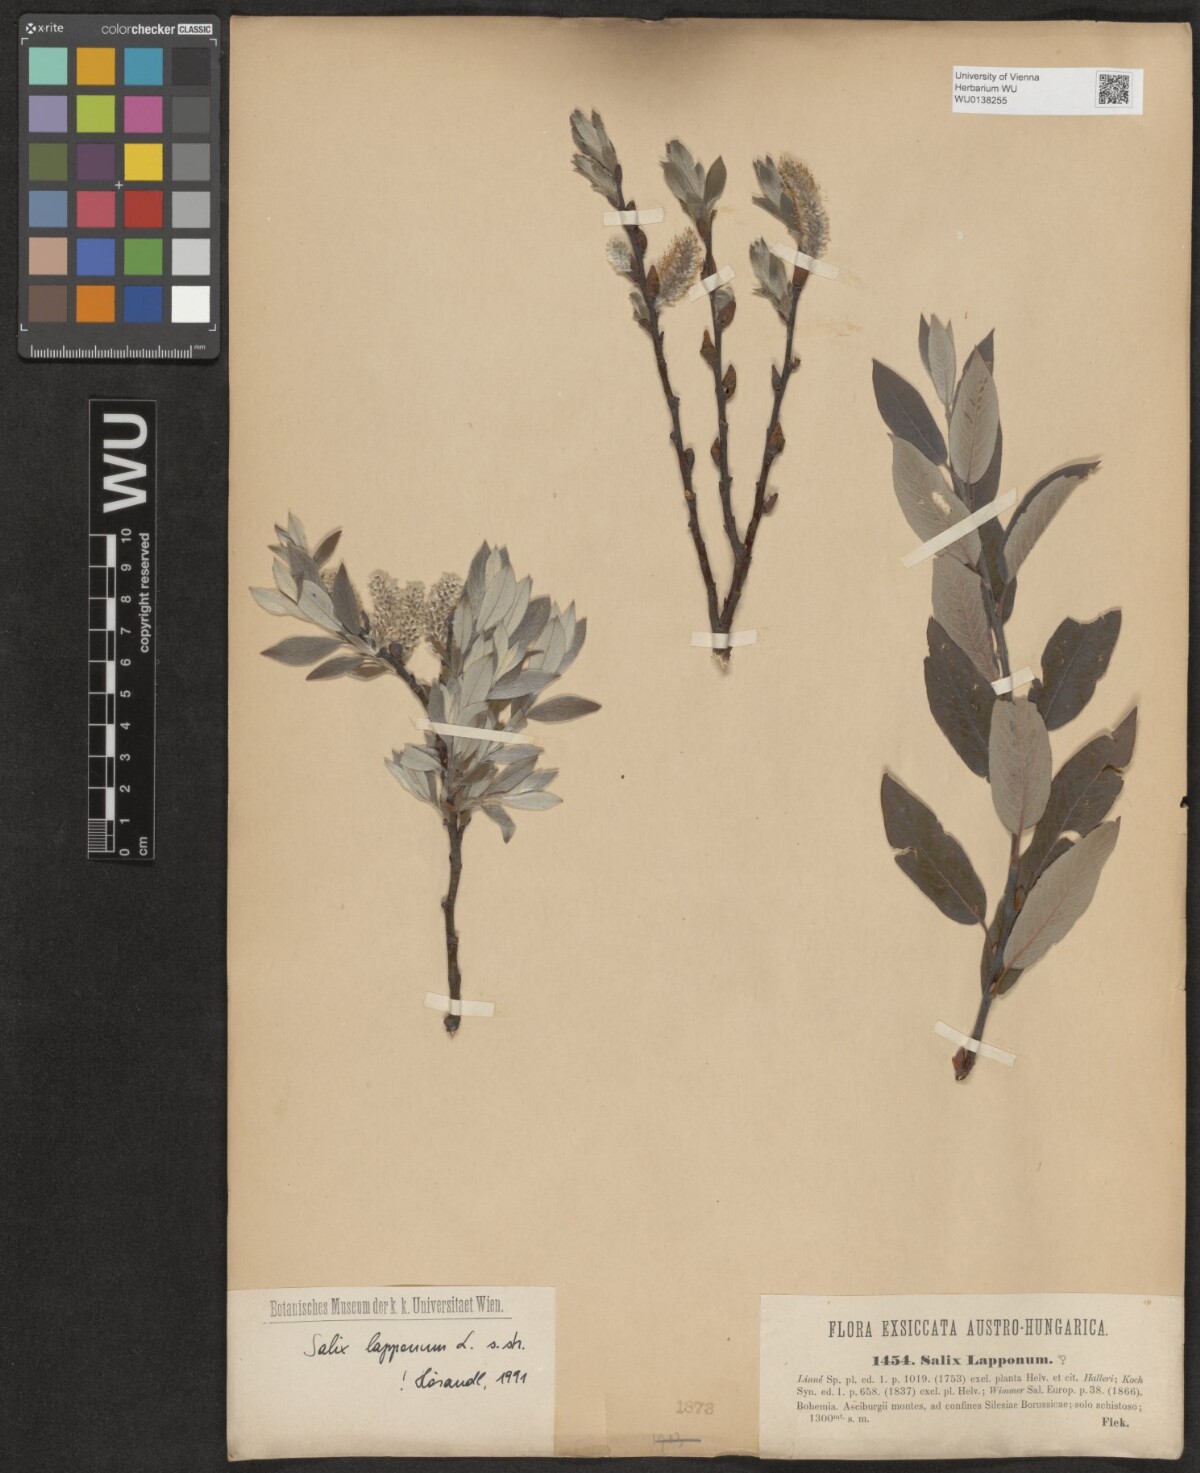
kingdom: Plantae
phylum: Tracheophyta
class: Magnoliopsida
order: Malpighiales
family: Salicaceae
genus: Salix
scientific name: Salix lapponum
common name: Downy willow
